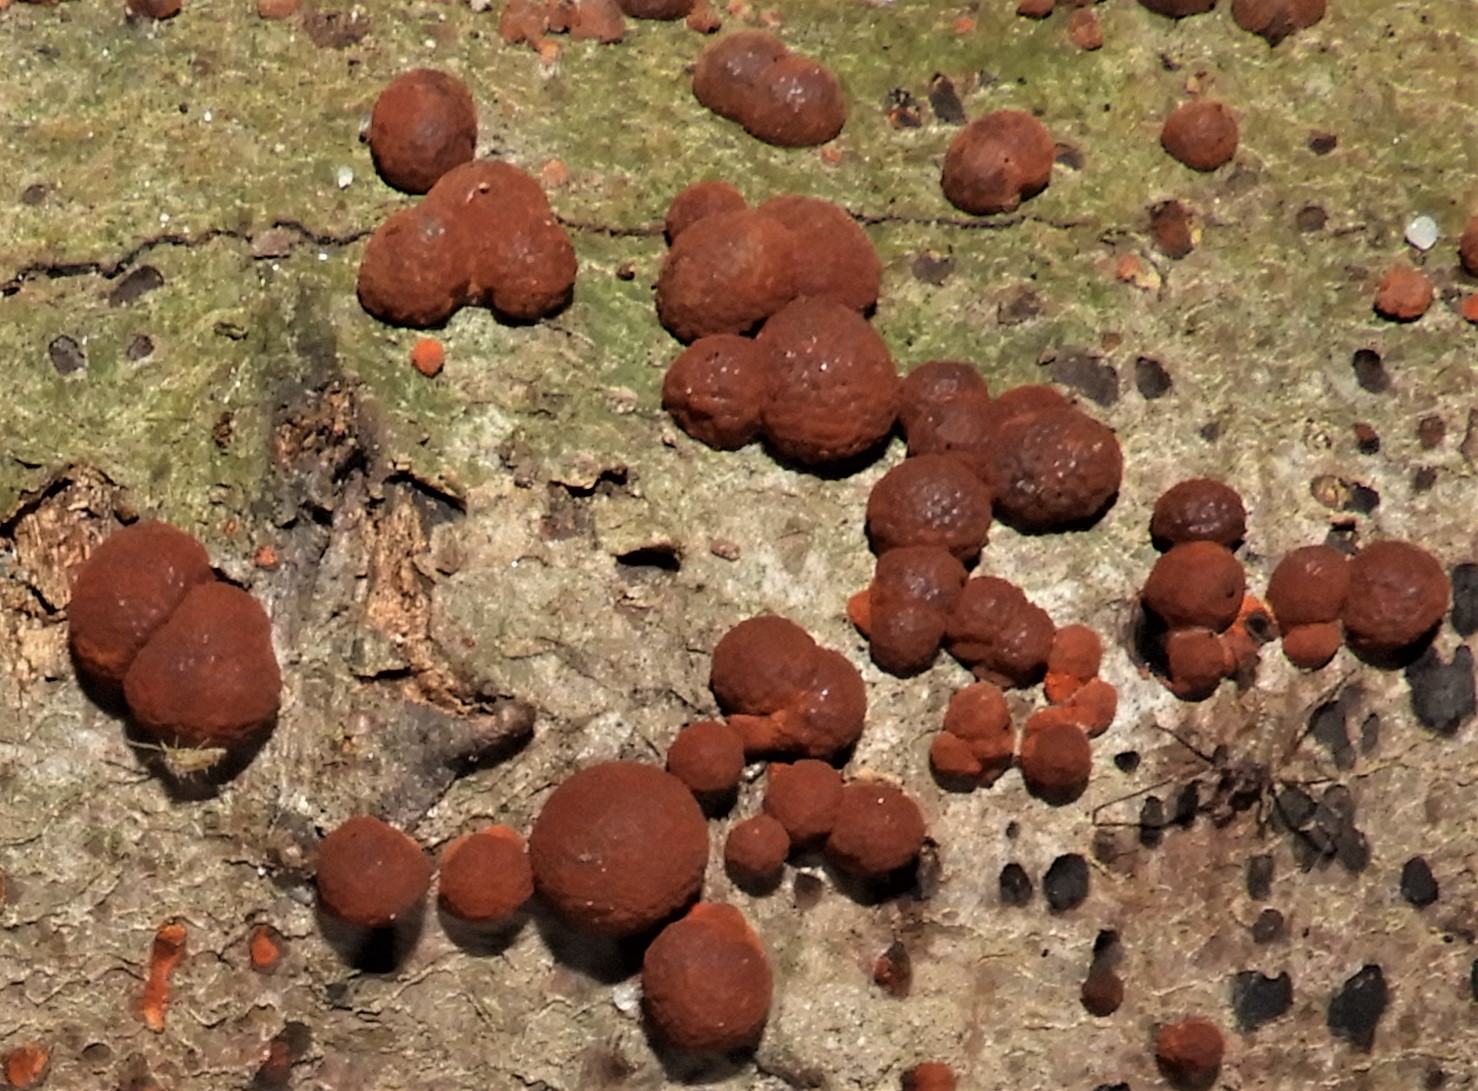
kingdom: Fungi
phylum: Ascomycota
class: Sordariomycetes
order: Xylariales
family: Hypoxylaceae
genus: Hypoxylon
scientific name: Hypoxylon fragiforme
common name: kuljordbær
